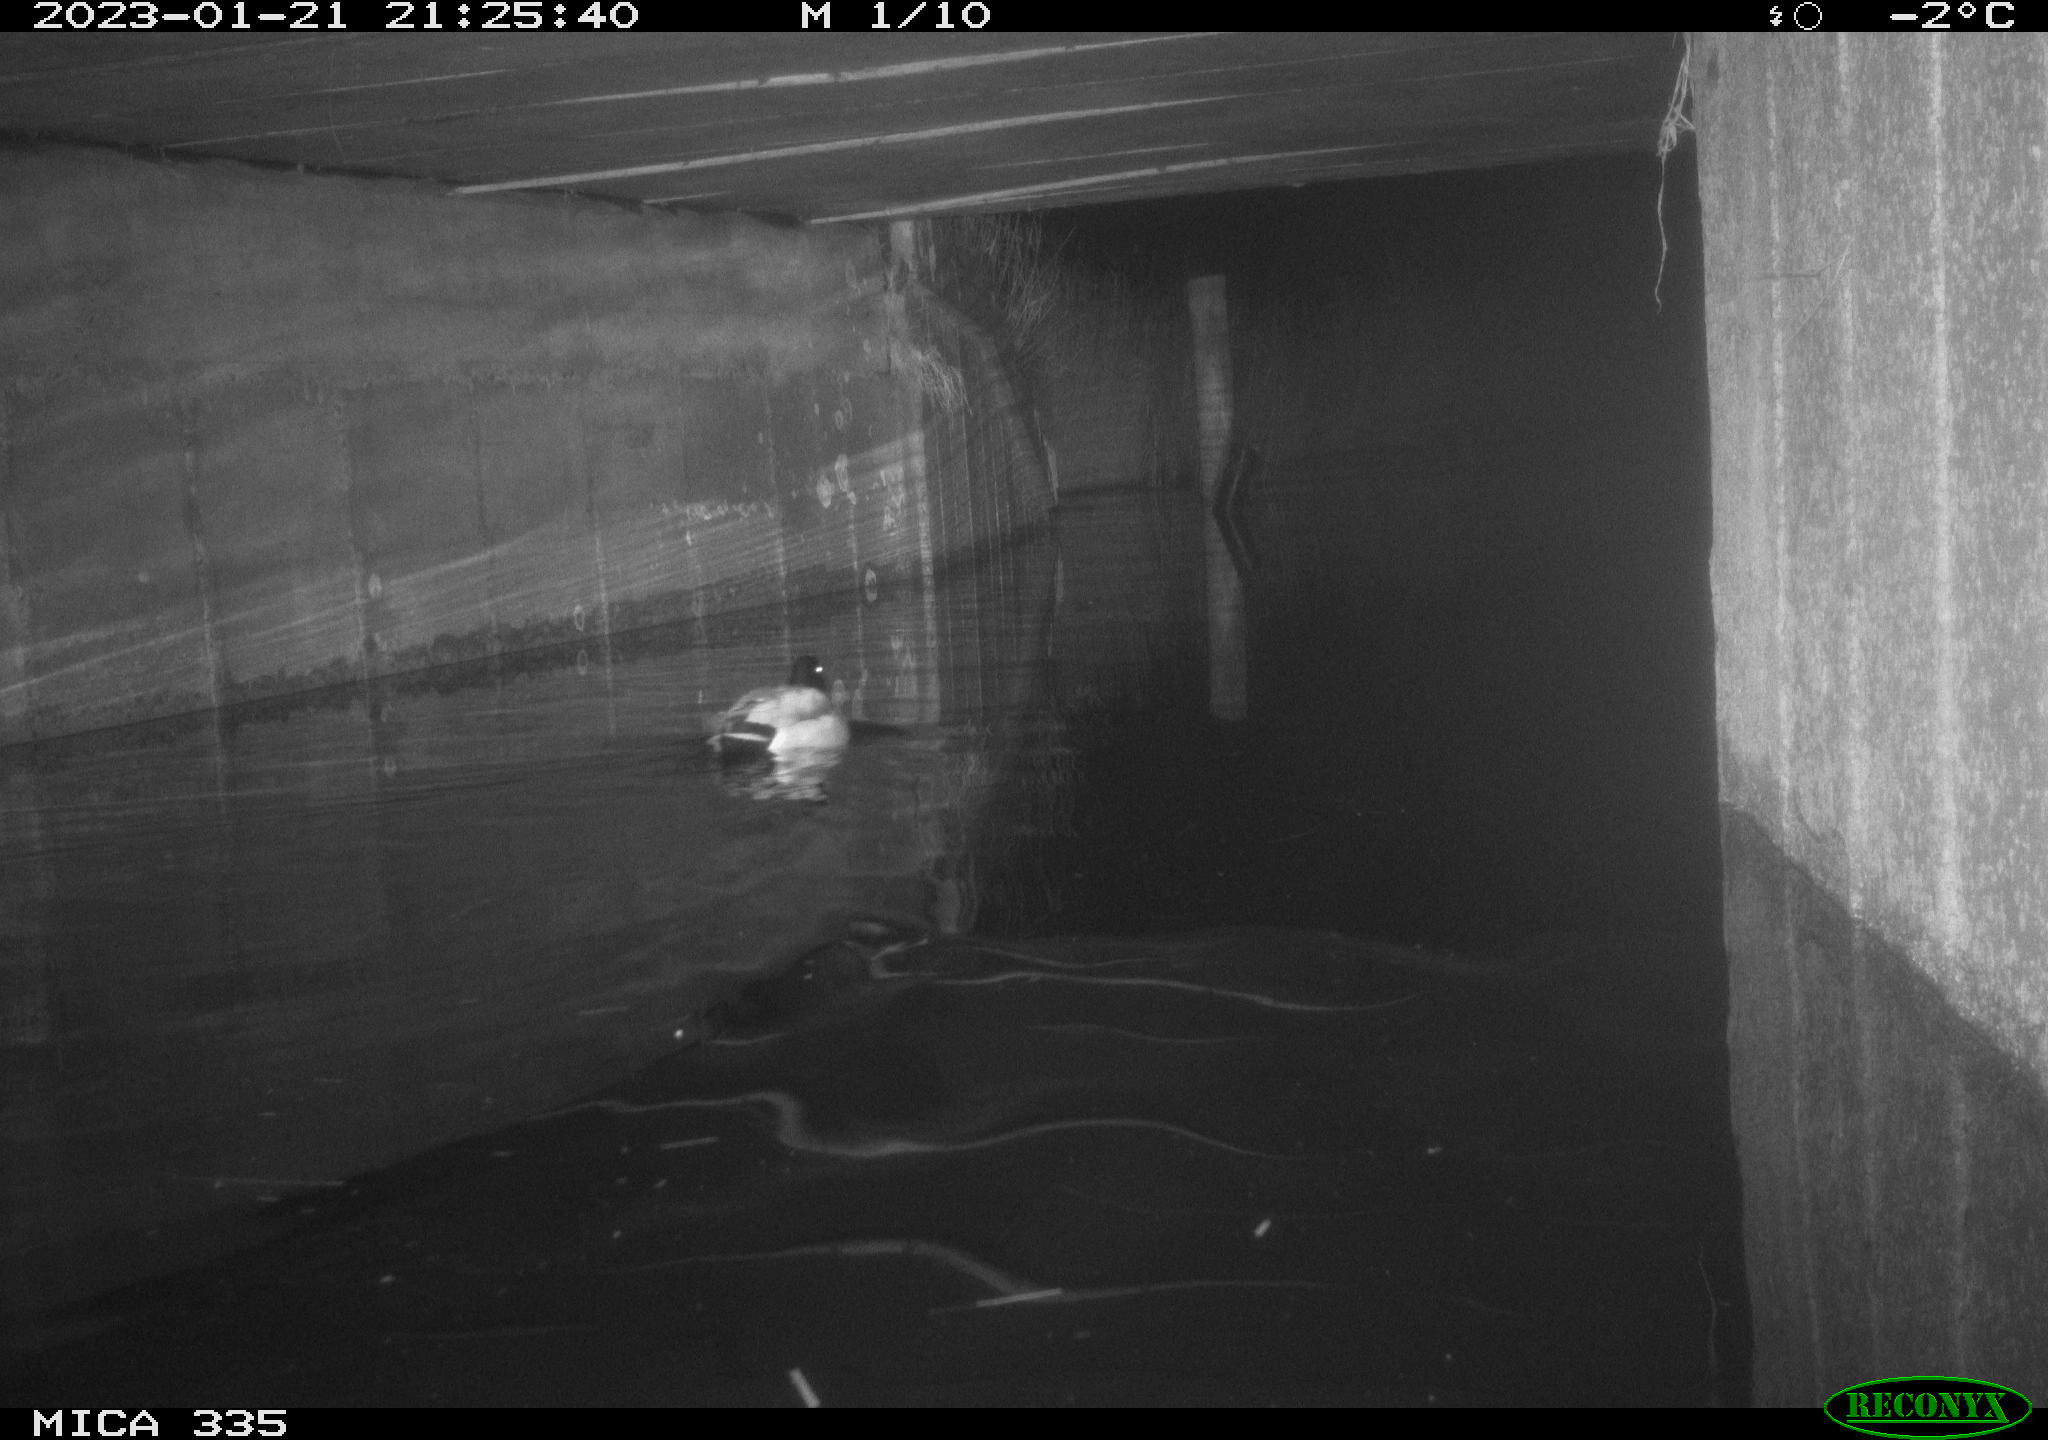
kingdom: Animalia
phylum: Chordata
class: Aves
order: Anseriformes
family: Anatidae
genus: Anas
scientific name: Anas
